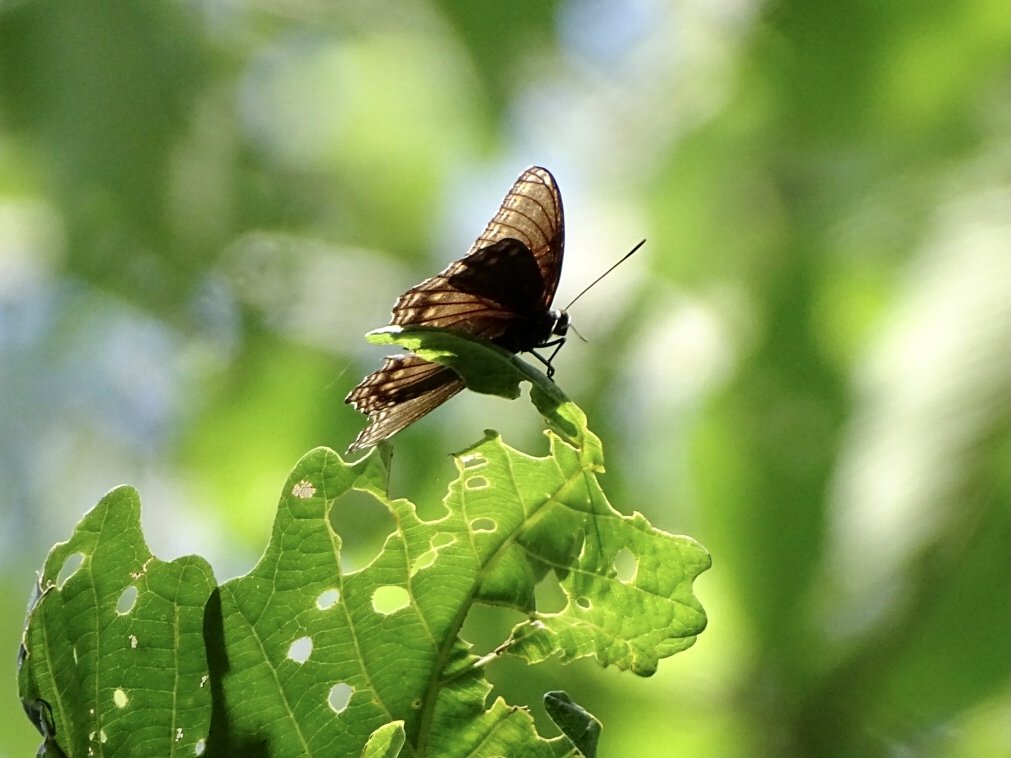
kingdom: Animalia
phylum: Arthropoda
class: Insecta
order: Lepidoptera
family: Nymphalidae
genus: Limenitis
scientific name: Limenitis arthemis
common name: Red-spotted Admiral
